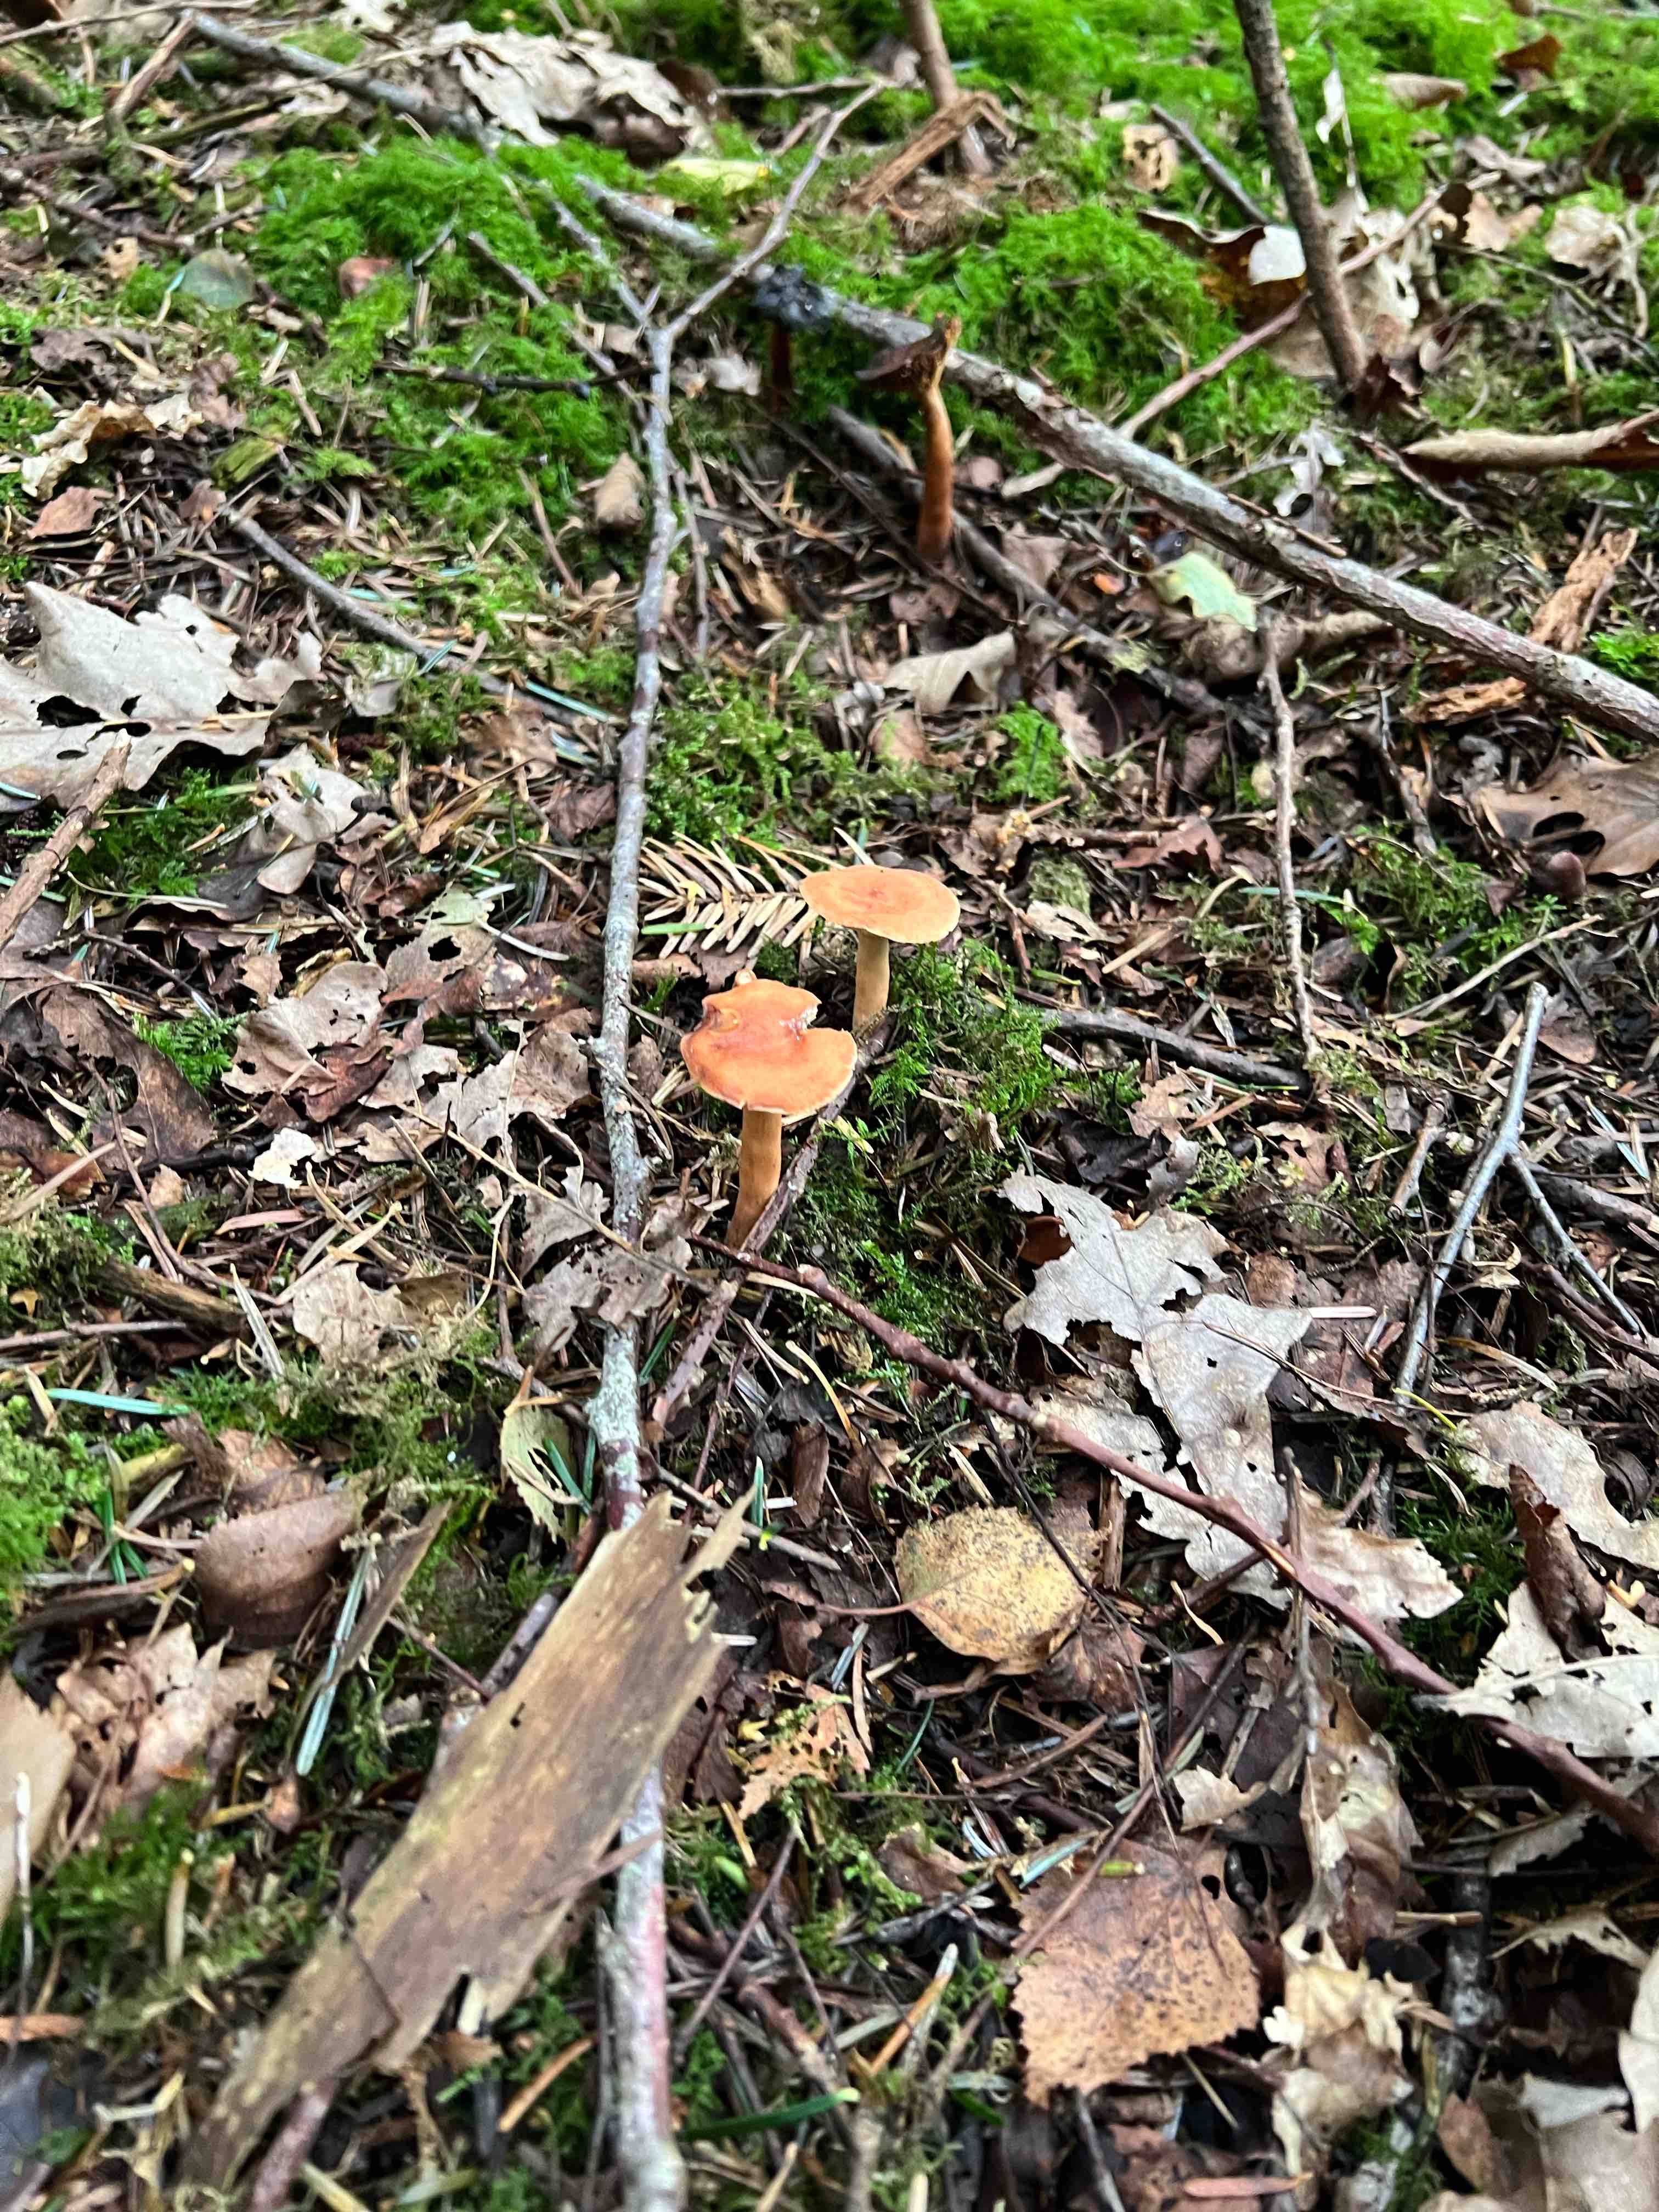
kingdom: Fungi
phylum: Basidiomycota
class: Agaricomycetes
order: Russulales
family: Russulaceae
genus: Lactarius
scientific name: Lactarius tabidus
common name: rynket mælkehat
